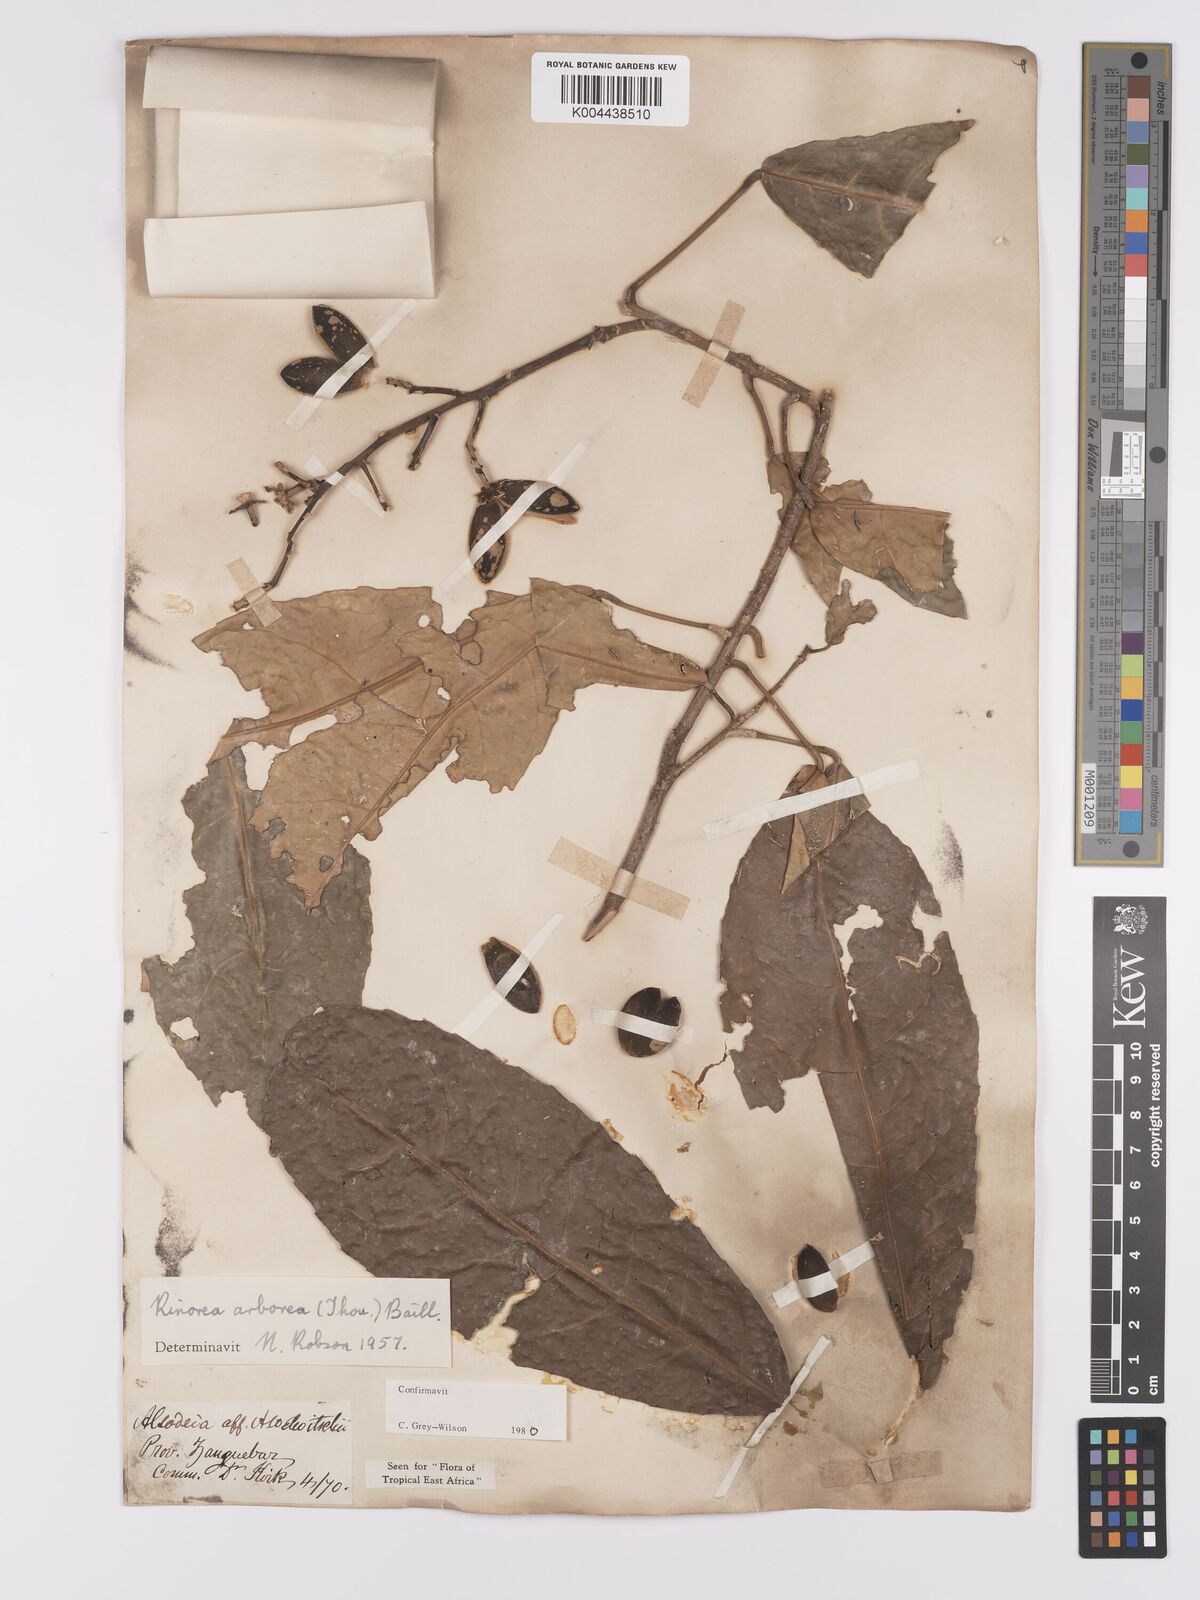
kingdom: Plantae
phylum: Tracheophyta
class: Magnoliopsida
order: Malpighiales
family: Violaceae
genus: Rinorea
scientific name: Rinorea arborea
